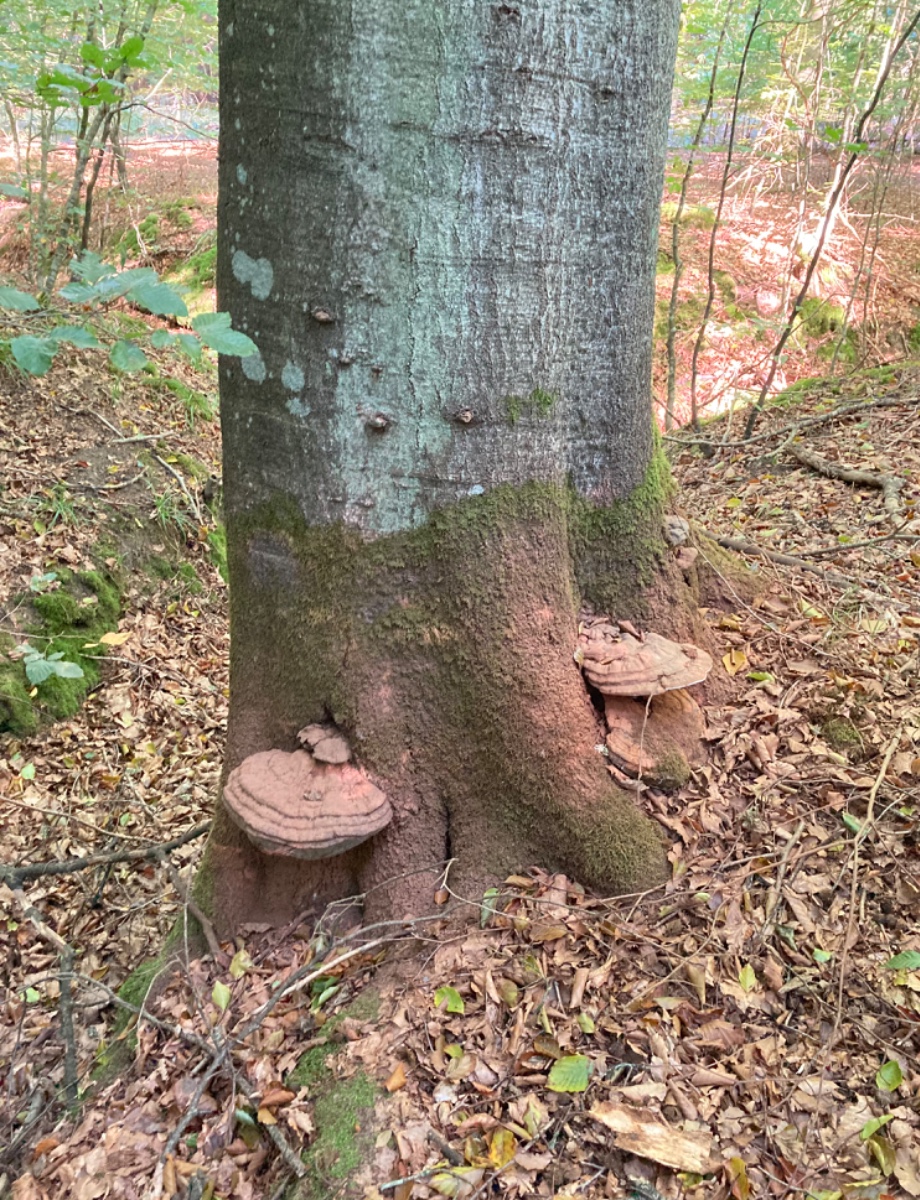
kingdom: Fungi
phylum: Basidiomycota
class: Agaricomycetes
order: Polyporales
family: Polyporaceae
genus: Ganoderma
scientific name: Ganoderma pfeifferi
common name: kobberrød lakporesvamp
